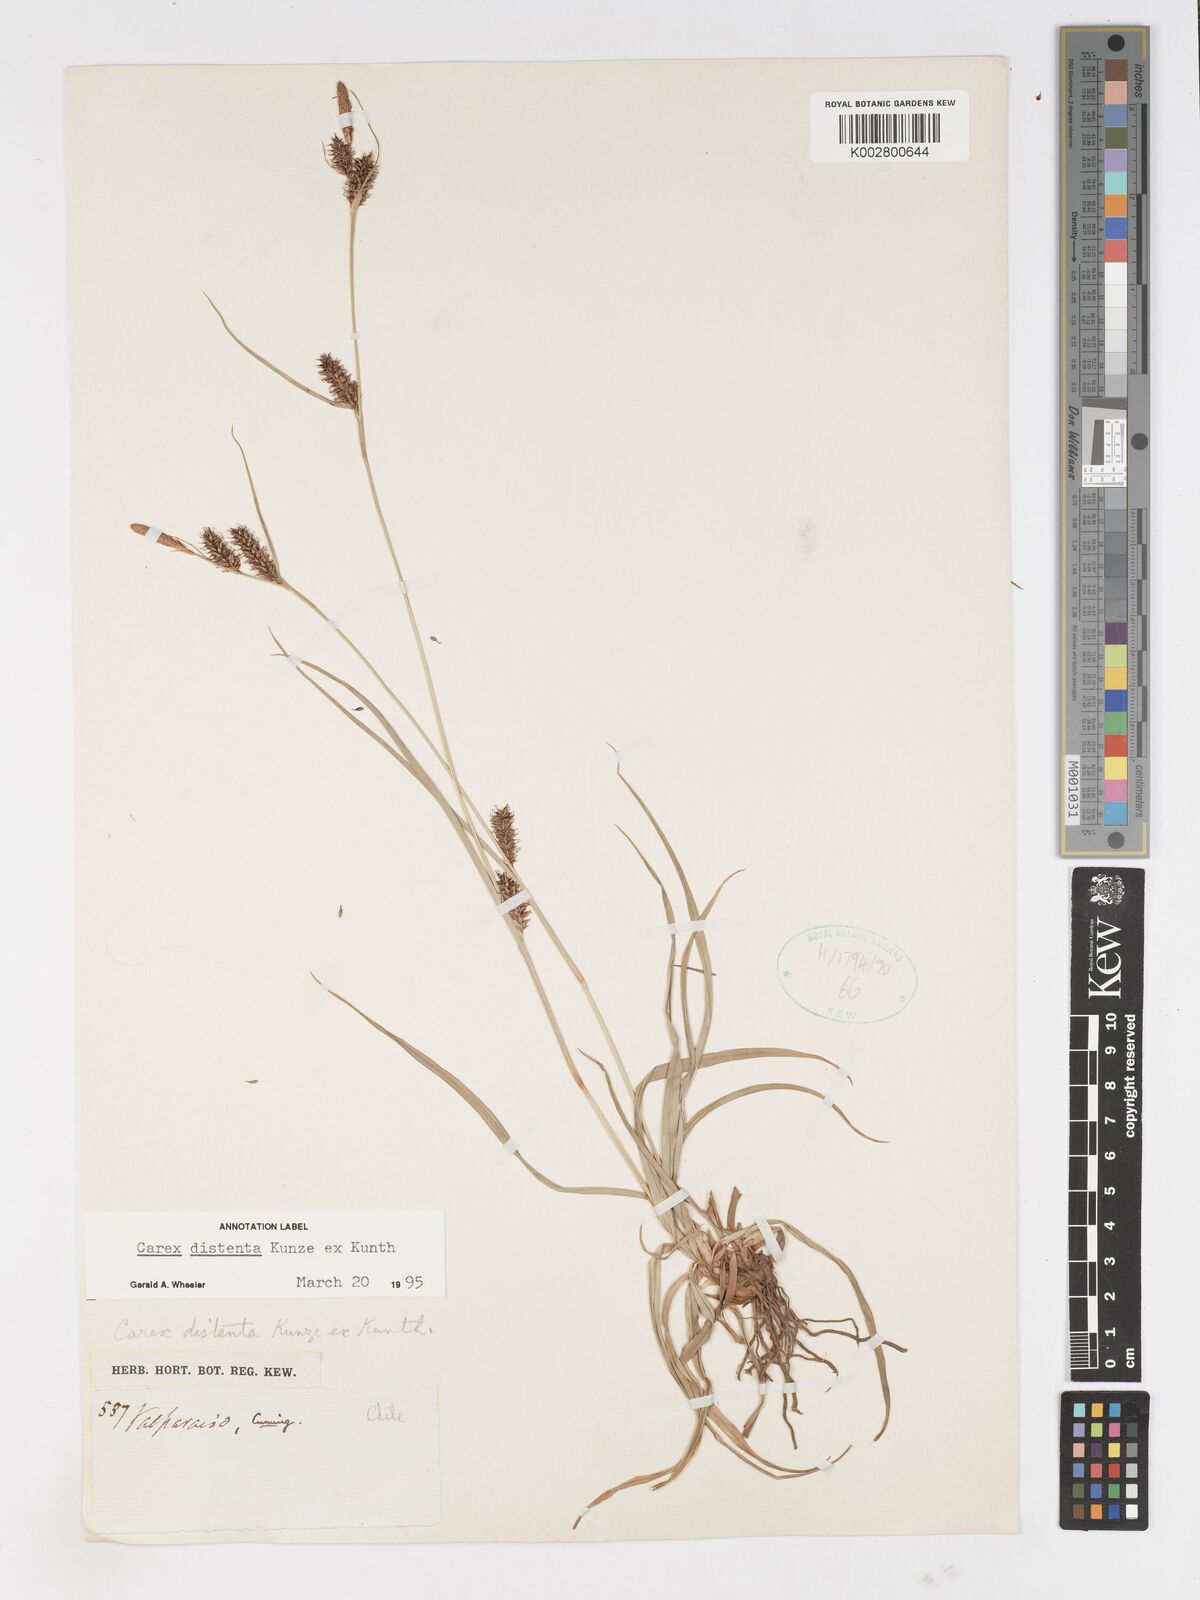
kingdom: Plantae
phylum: Tracheophyta
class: Liliopsida
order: Poales
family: Cyperaceae
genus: Carex
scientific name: Carex fuscula
